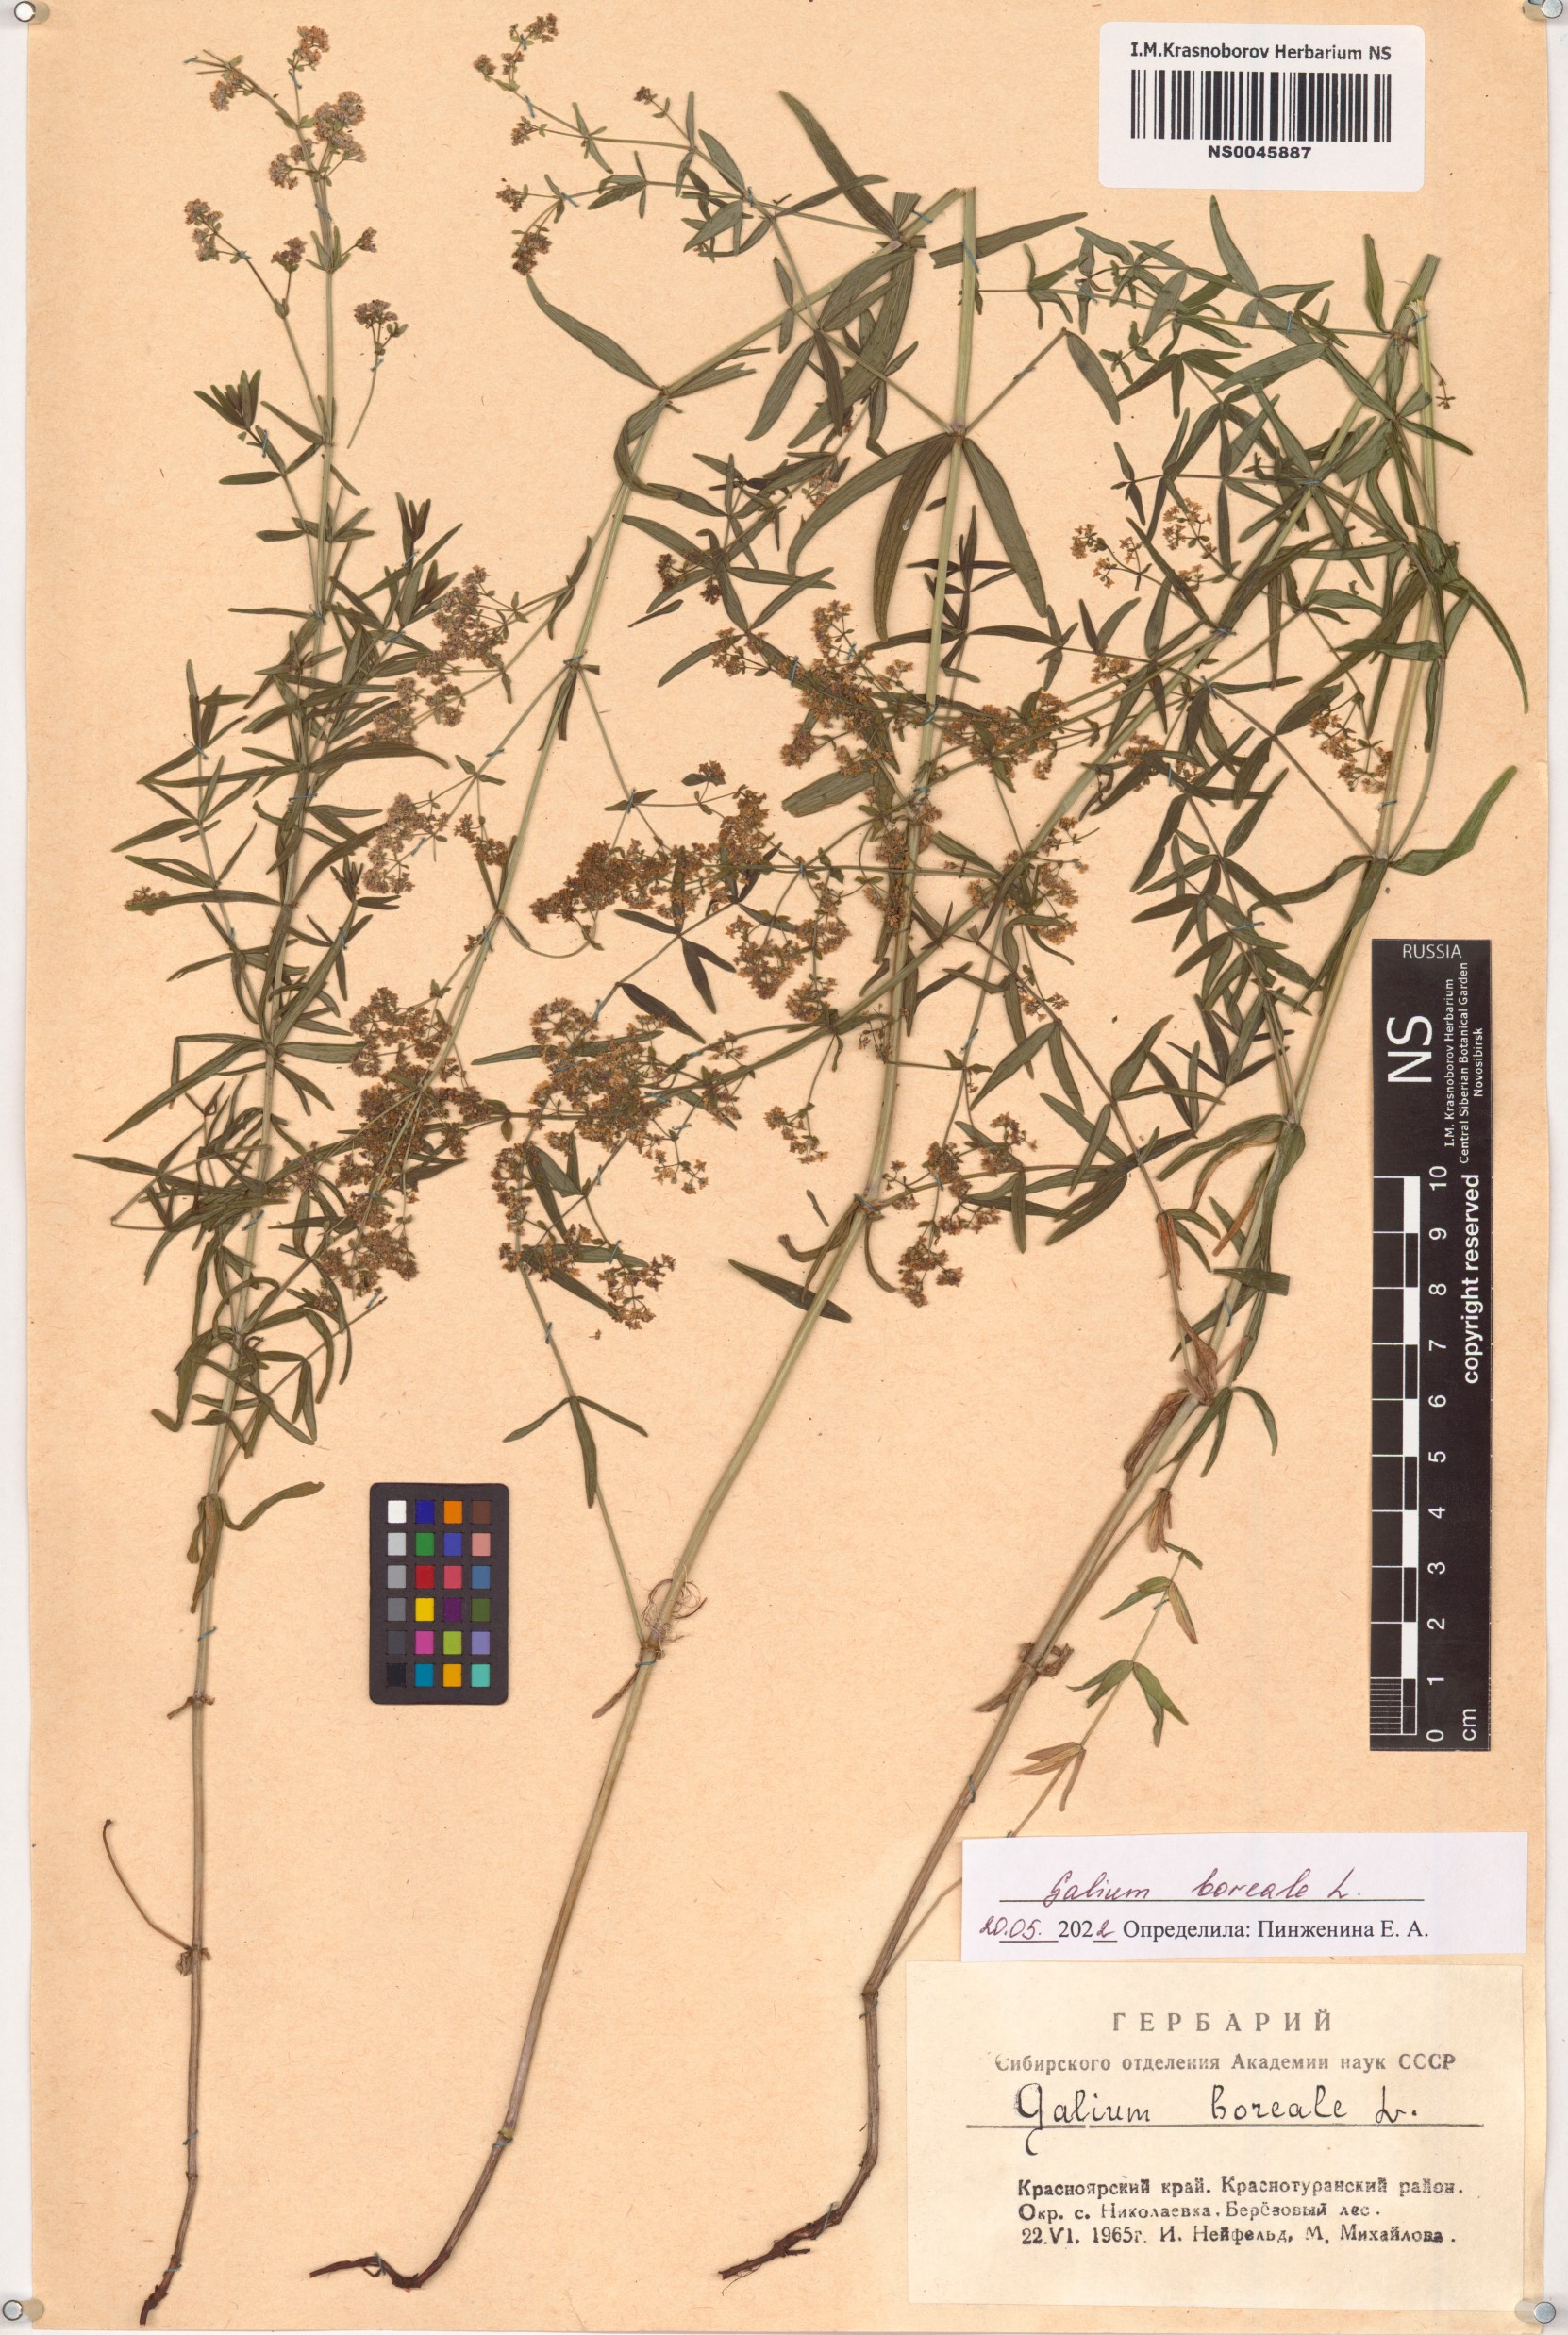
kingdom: Plantae
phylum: Tracheophyta
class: Magnoliopsida
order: Gentianales
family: Rubiaceae
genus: Galium
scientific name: Galium boreale
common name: Northern bedstraw
